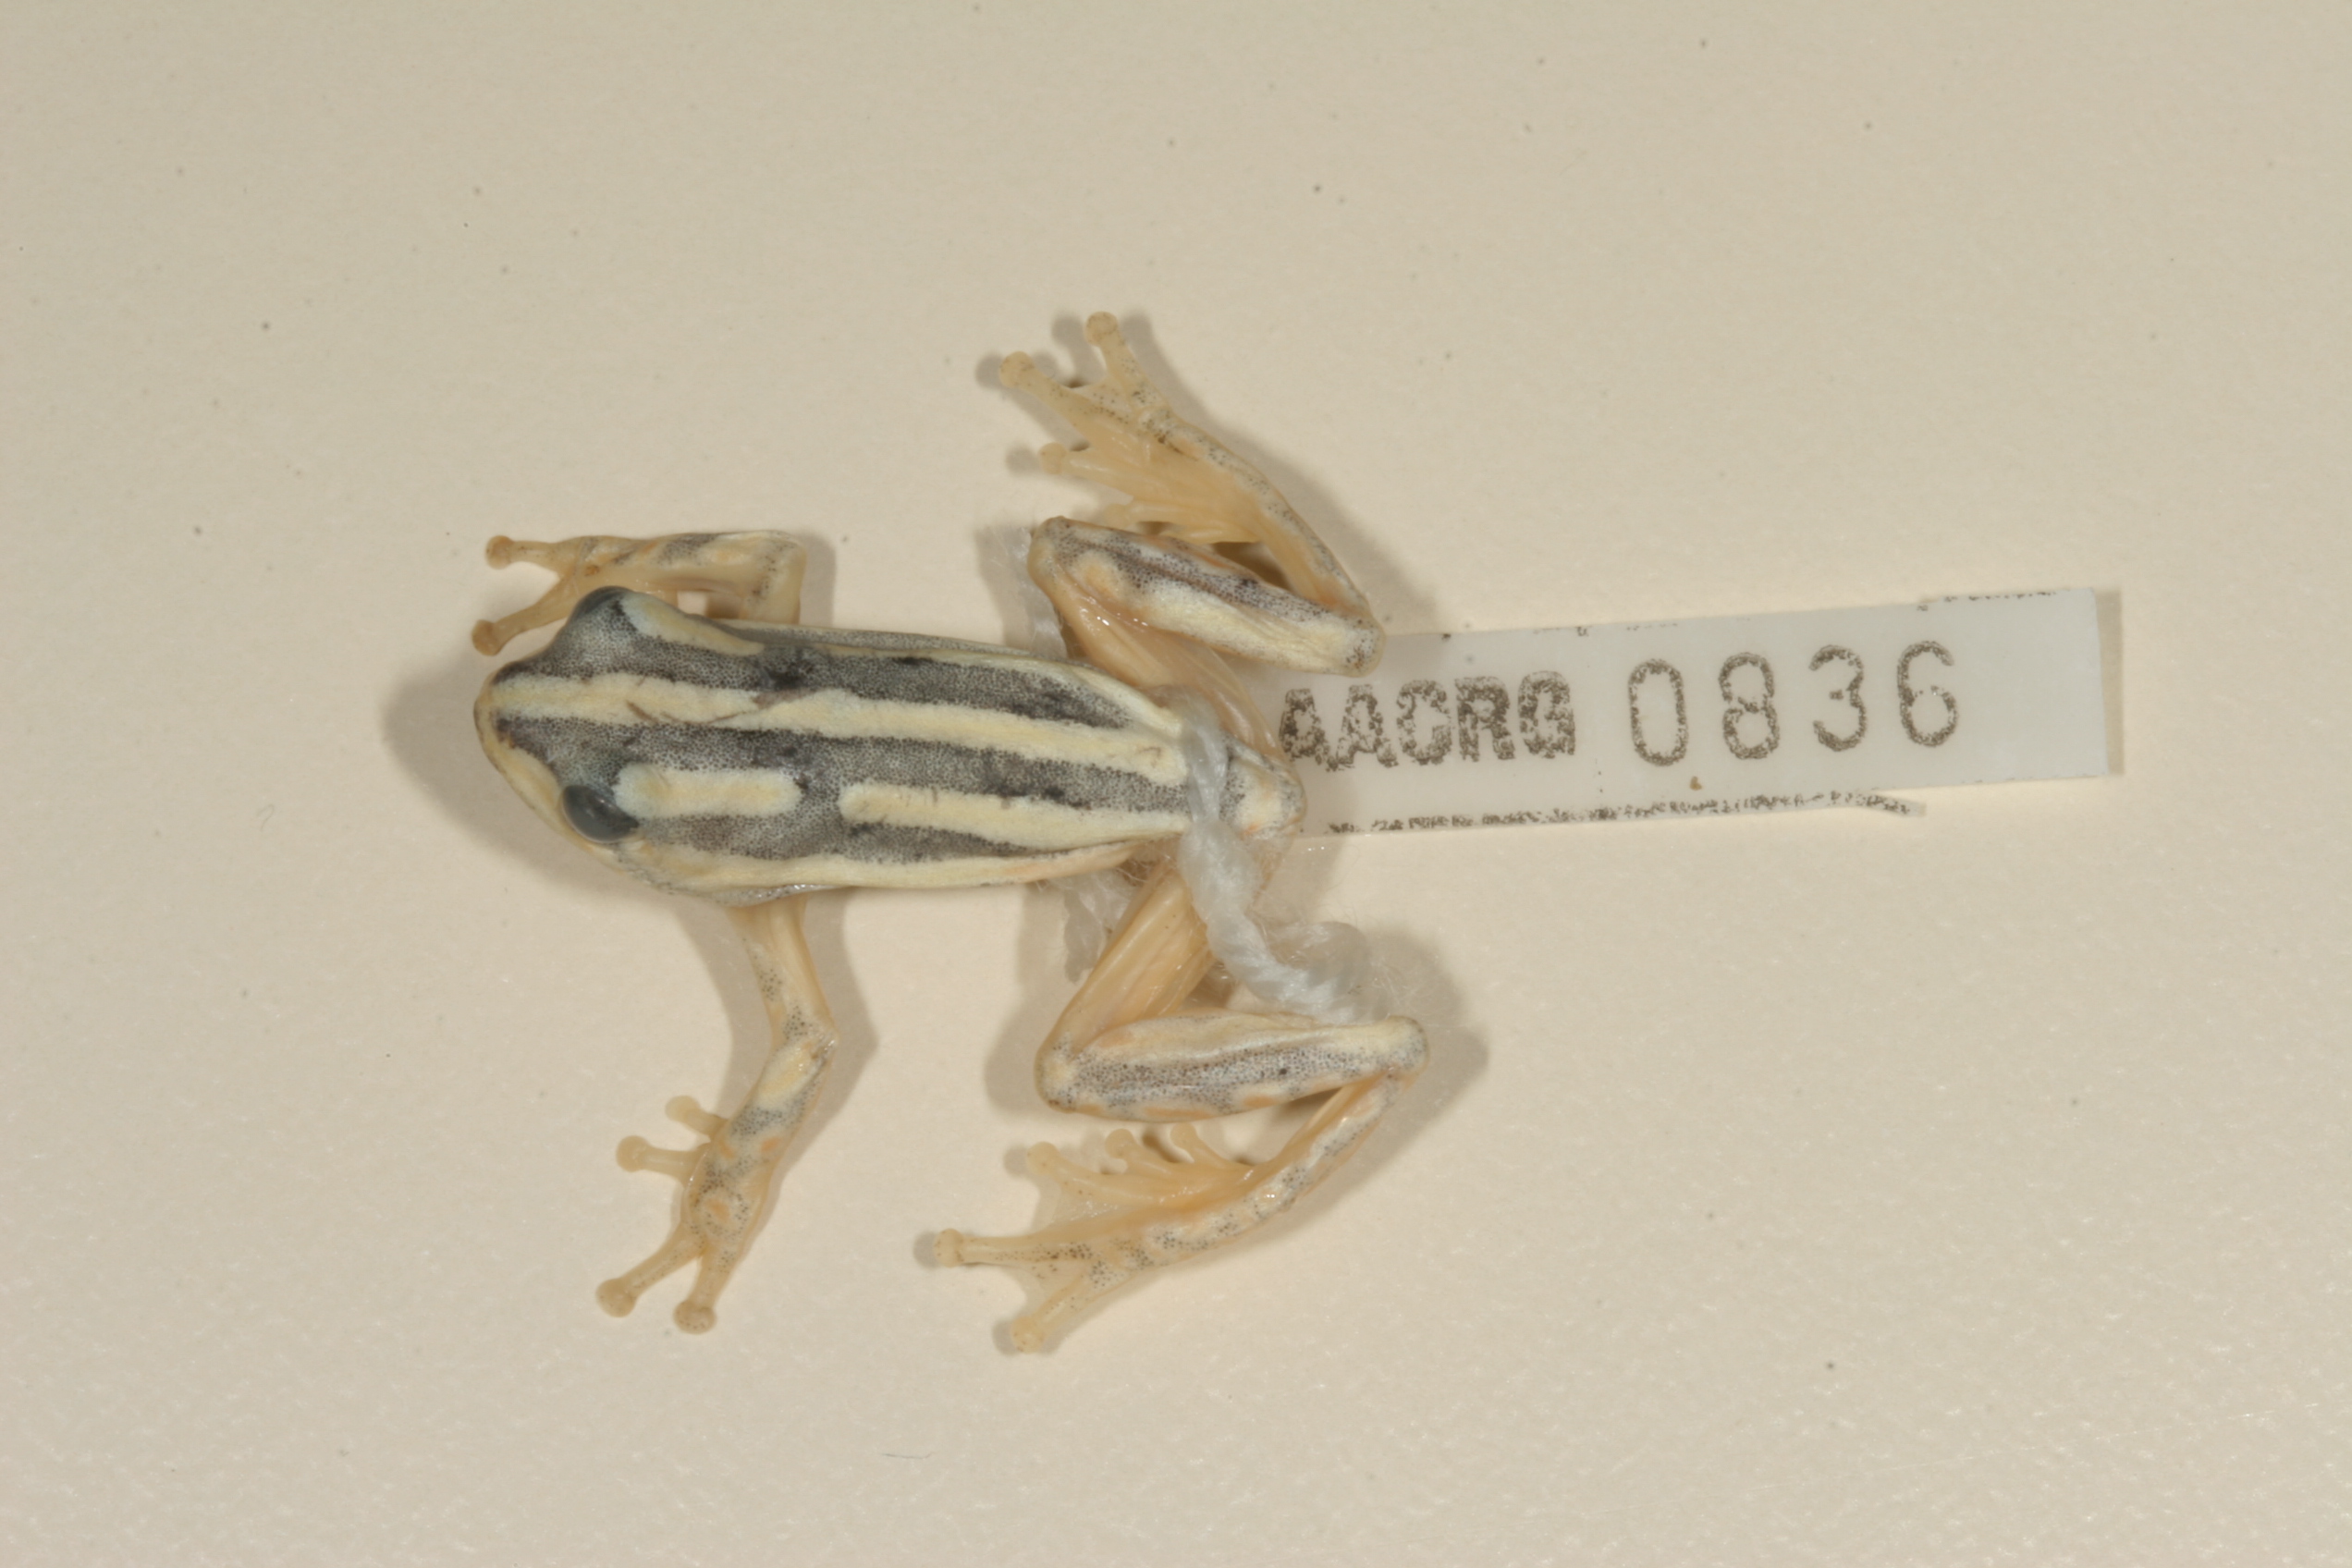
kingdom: Animalia
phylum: Chordata
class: Amphibia
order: Anura
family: Hyperoliidae
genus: Hyperolius
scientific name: Hyperolius marmoratus
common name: Painted reed frog
